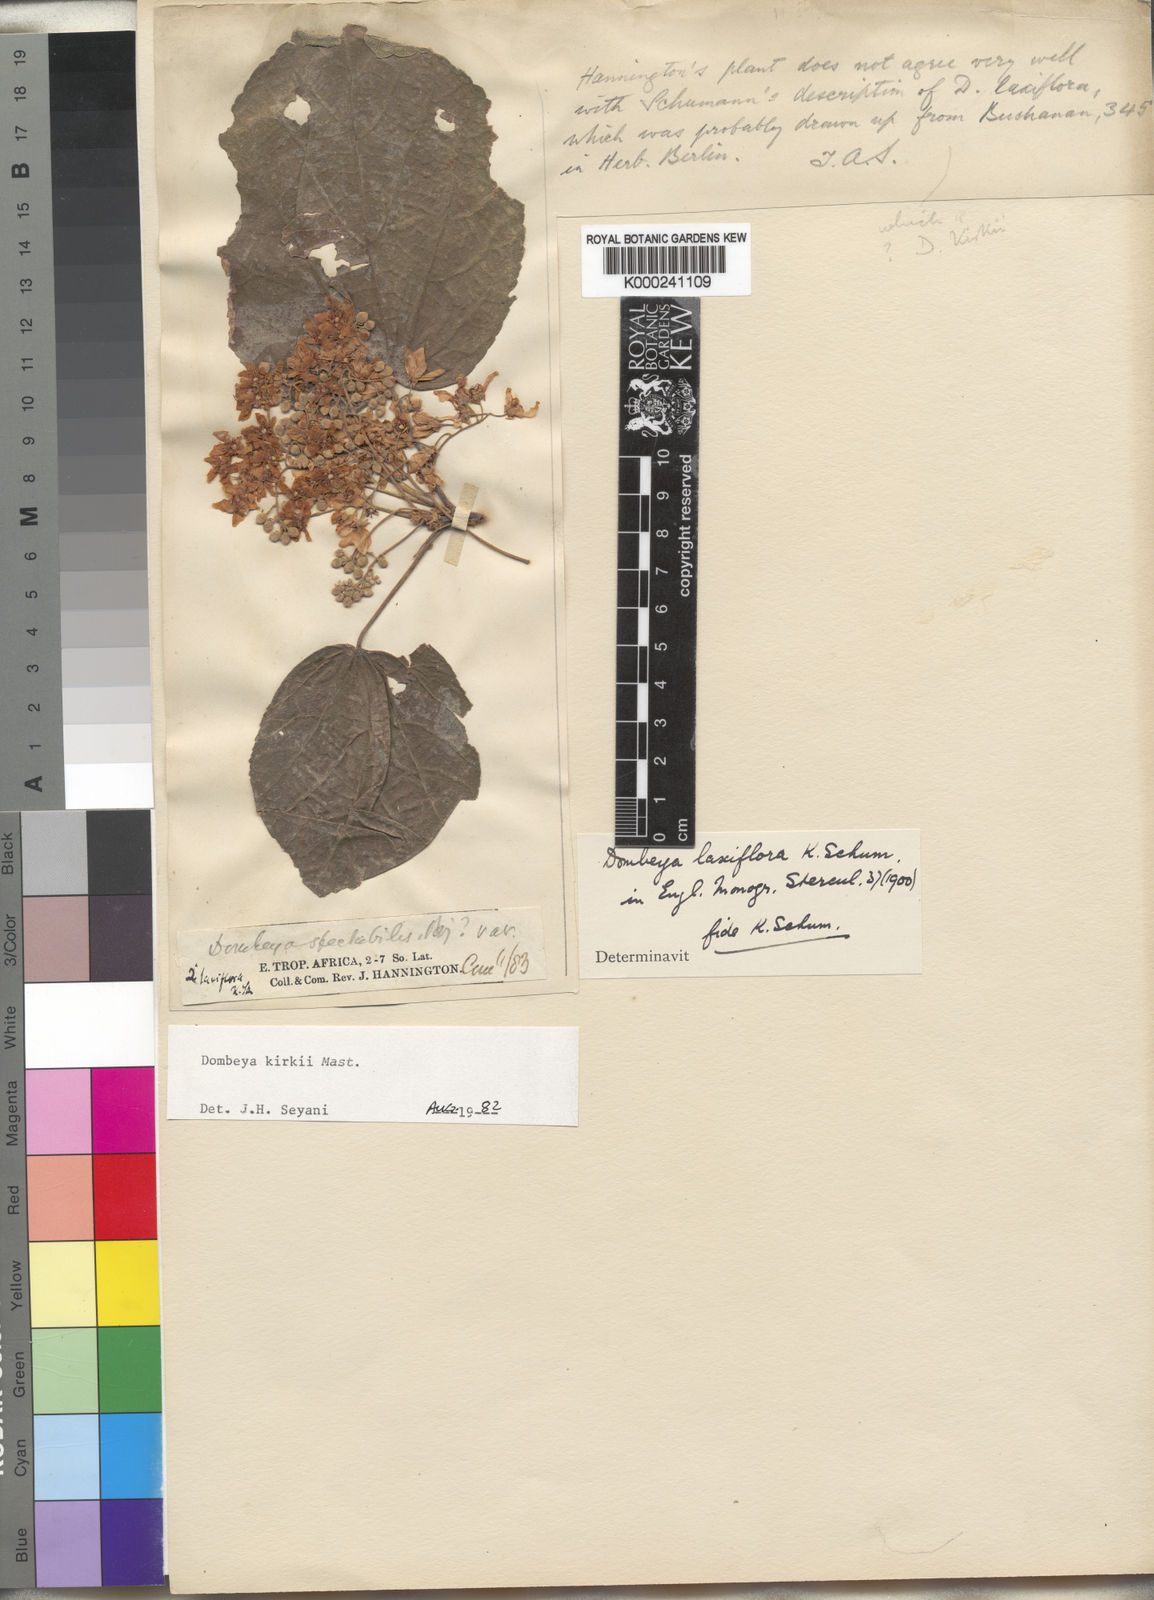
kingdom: Plantae
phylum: Tracheophyta
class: Magnoliopsida
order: Malvales
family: Malvaceae
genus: Dombeya
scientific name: Dombeya kirkii
